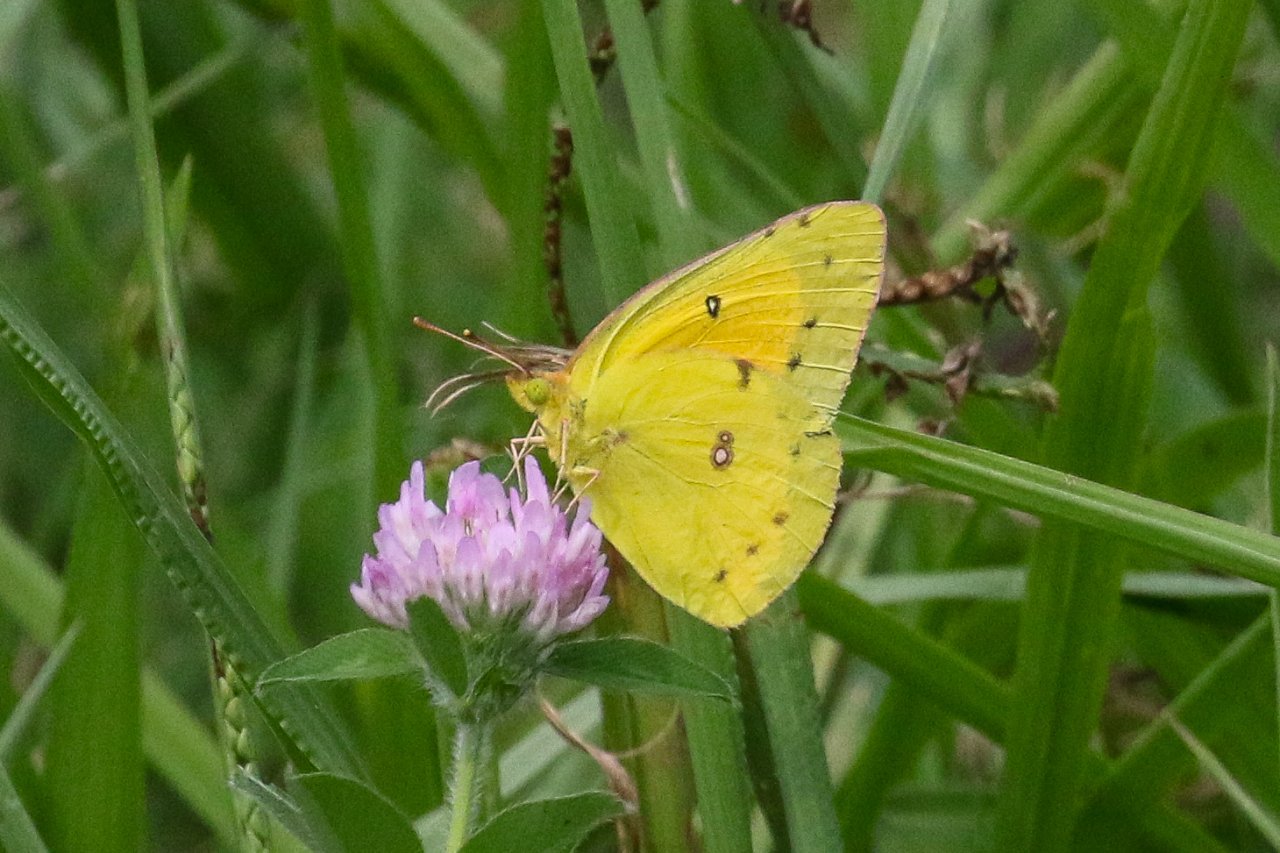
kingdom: Animalia
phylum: Arthropoda
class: Insecta
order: Lepidoptera
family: Pieridae
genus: Colias
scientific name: Colias eurytheme
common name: Orange Sulphur
